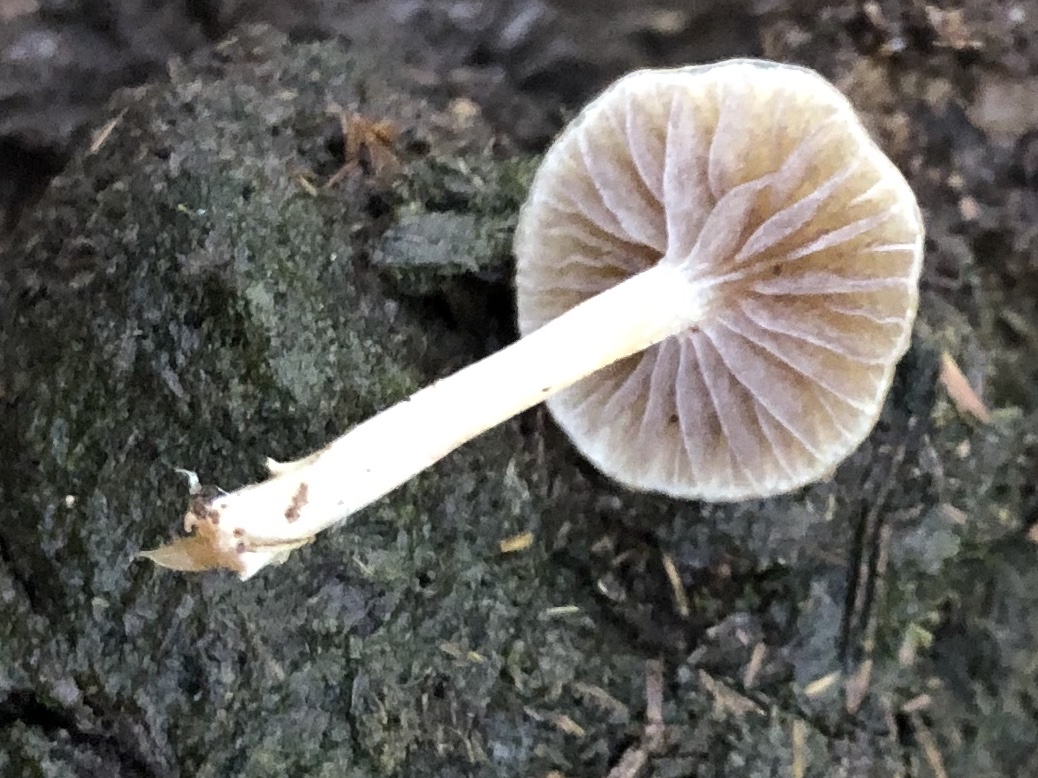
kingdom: Fungi
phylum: Basidiomycota
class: Agaricomycetes
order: Agaricales
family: Strophariaceae
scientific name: Strophariaceae
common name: bredbladfamilien
